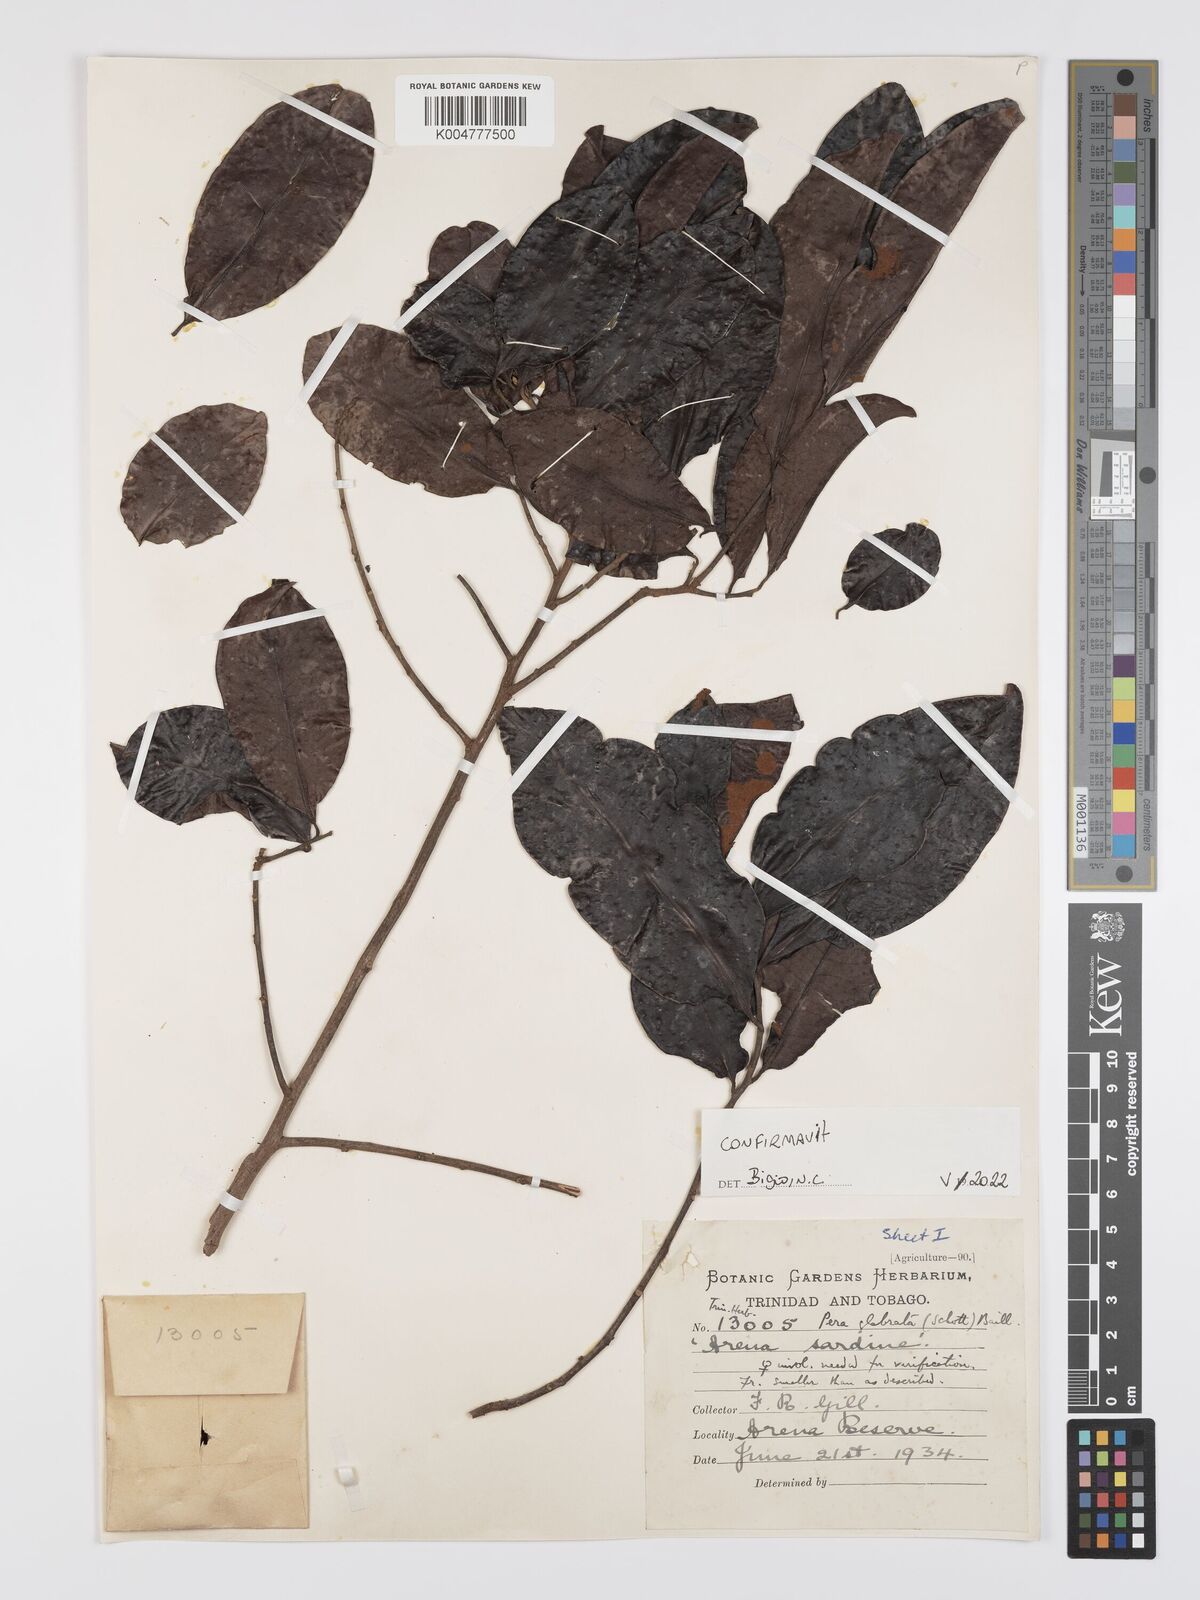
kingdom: Plantae
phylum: Tracheophyta
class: Magnoliopsida
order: Malpighiales
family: Peraceae
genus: Pera
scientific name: Pera glabrata
